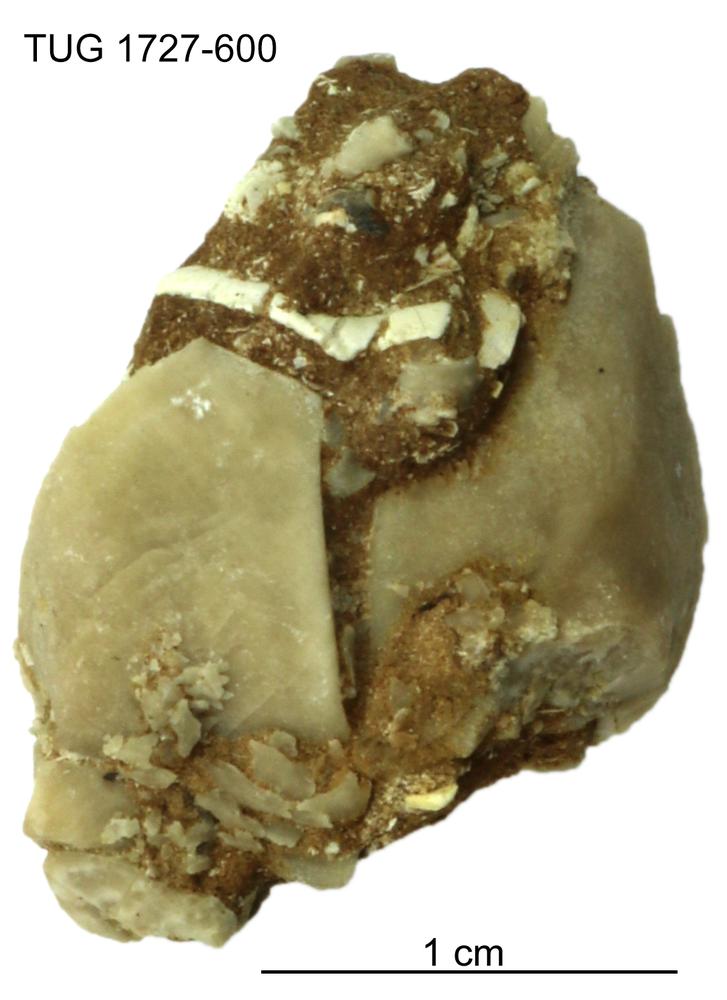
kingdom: Animalia
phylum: Echinodermata
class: Crinoidea
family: Hybocrinidae
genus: Hoplocrinus
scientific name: Hoplocrinus
